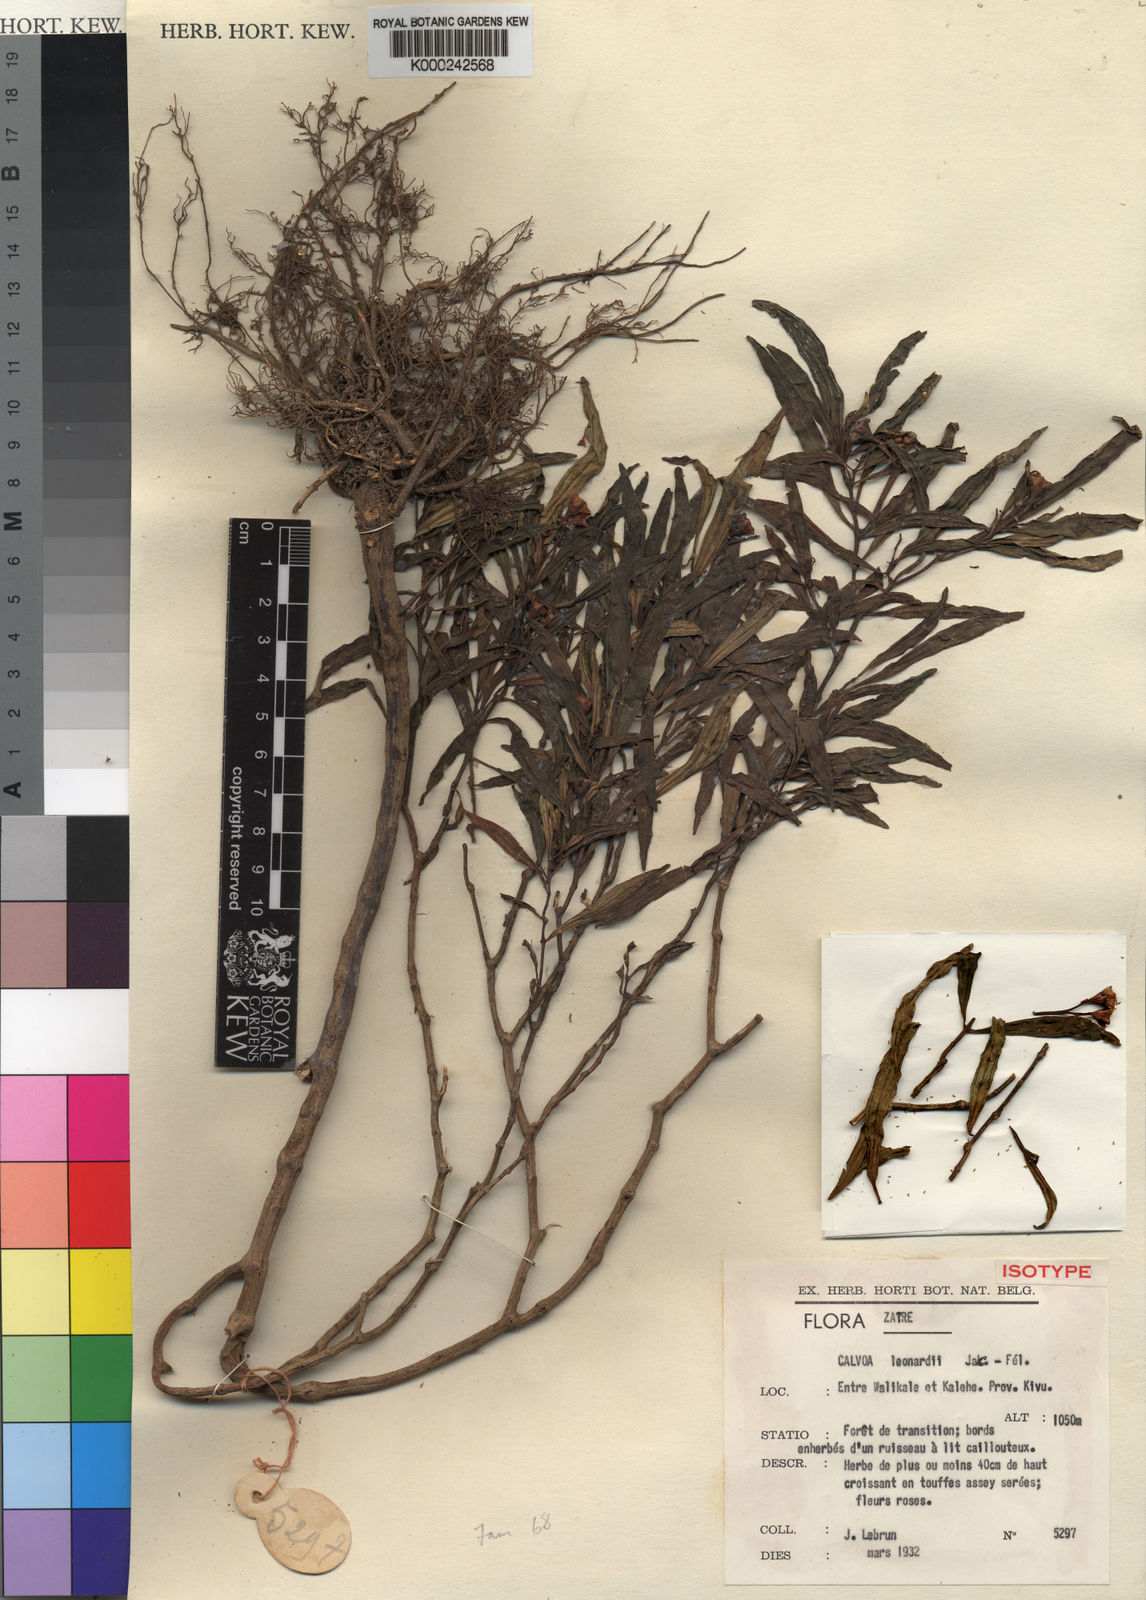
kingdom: Plantae
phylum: Tracheophyta
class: Magnoliopsida
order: Myrtales
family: Melastomataceae
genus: Calvoa
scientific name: Calvoa
